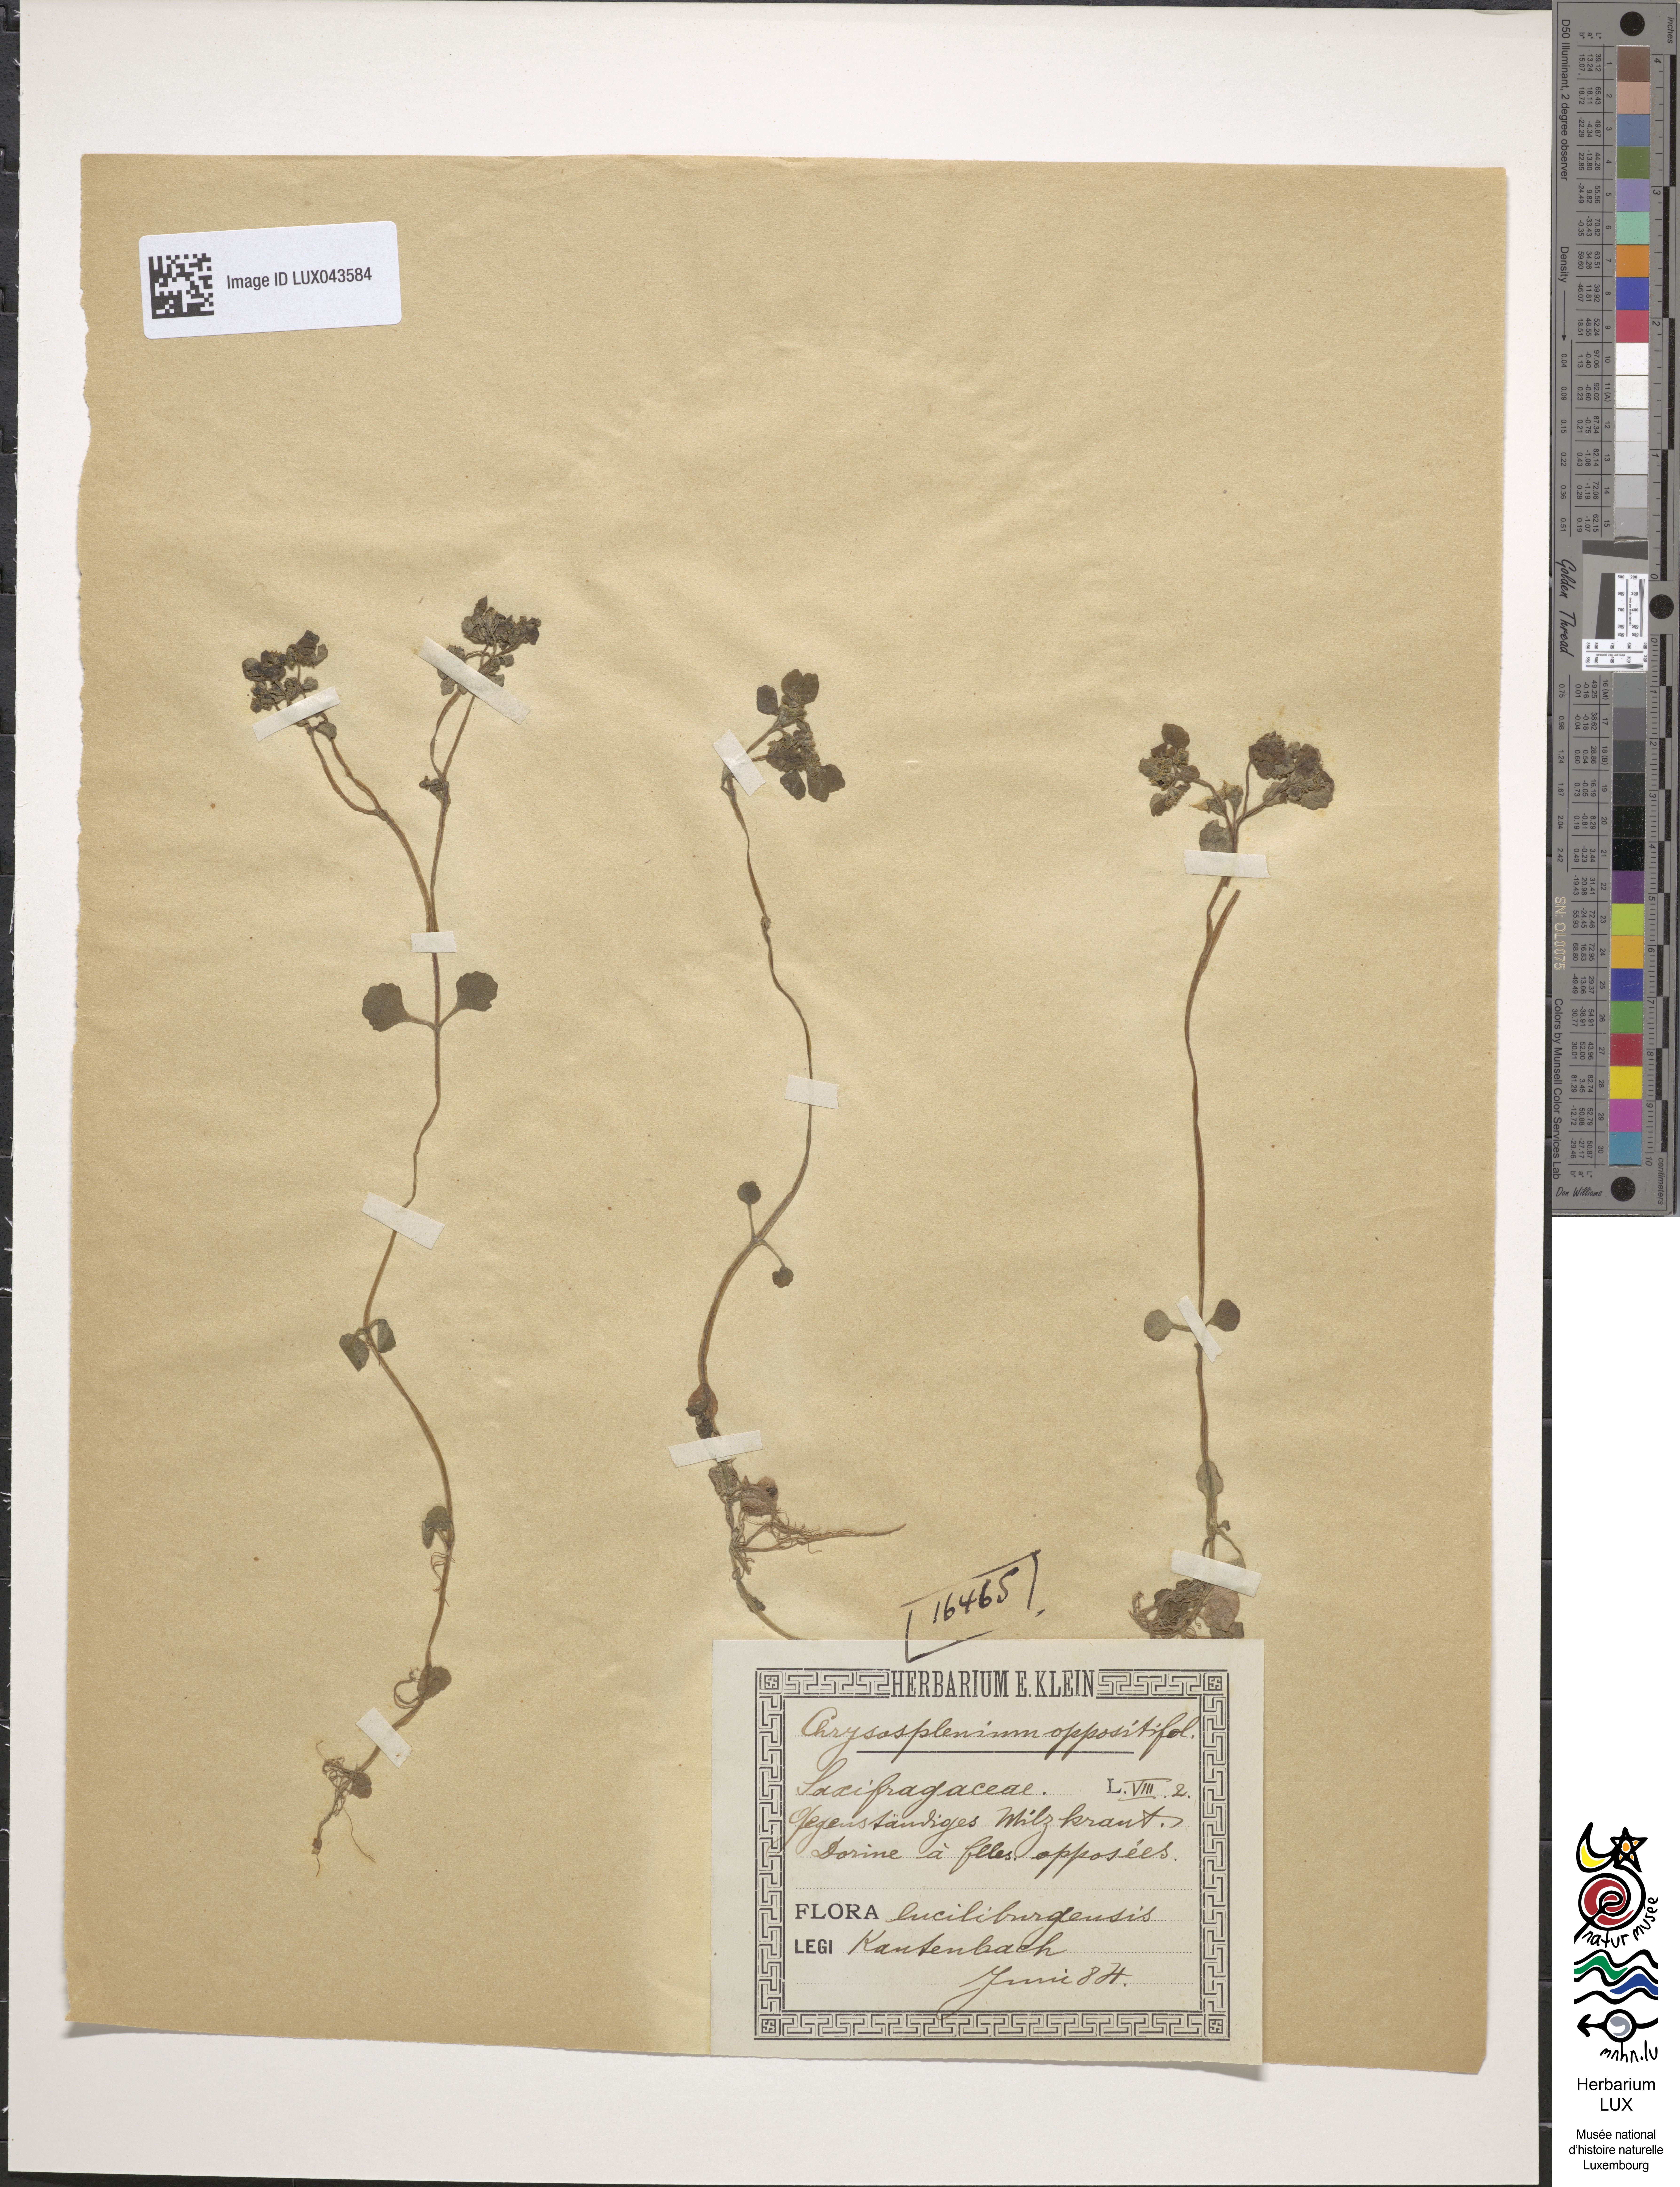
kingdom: Plantae
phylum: Tracheophyta
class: Magnoliopsida
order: Saxifragales
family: Saxifragaceae
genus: Chrysosplenium
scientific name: Chrysosplenium oppositifolium
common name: Opposite-leaved golden-saxifrage
